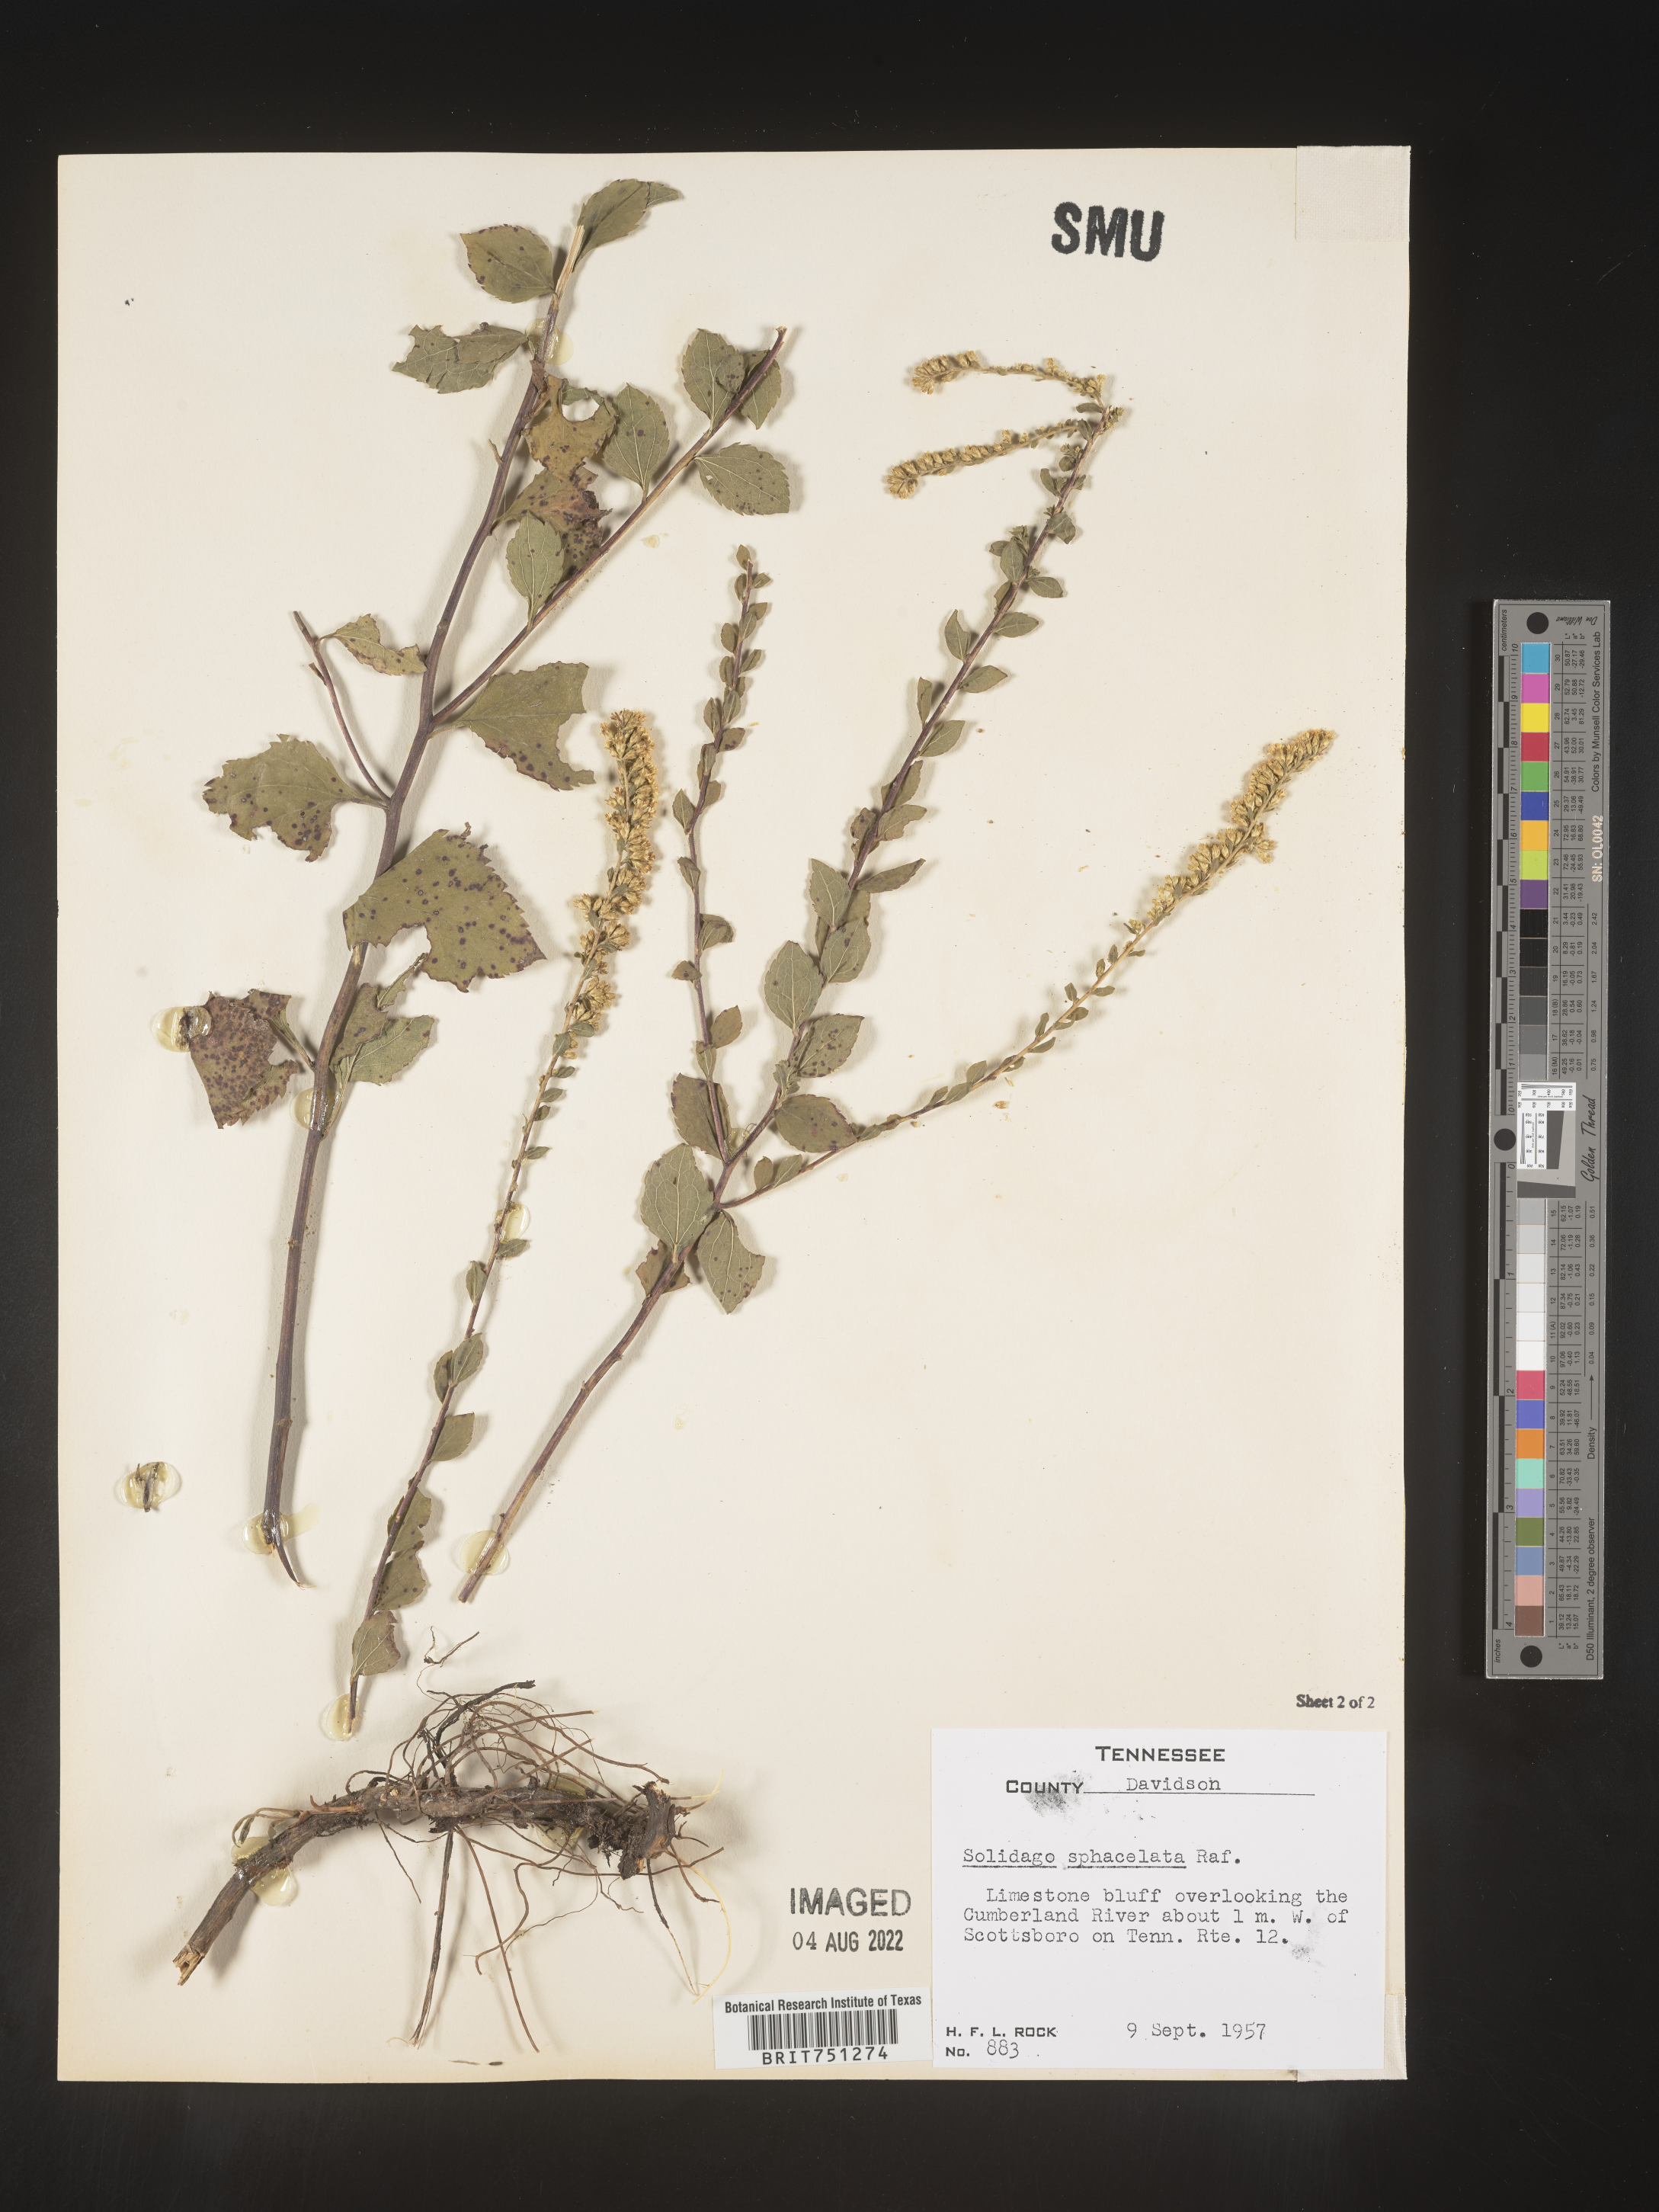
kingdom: Plantae
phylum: Tracheophyta
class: Magnoliopsida
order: Asterales
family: Asteraceae
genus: Solidago
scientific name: Solidago sphacelata
